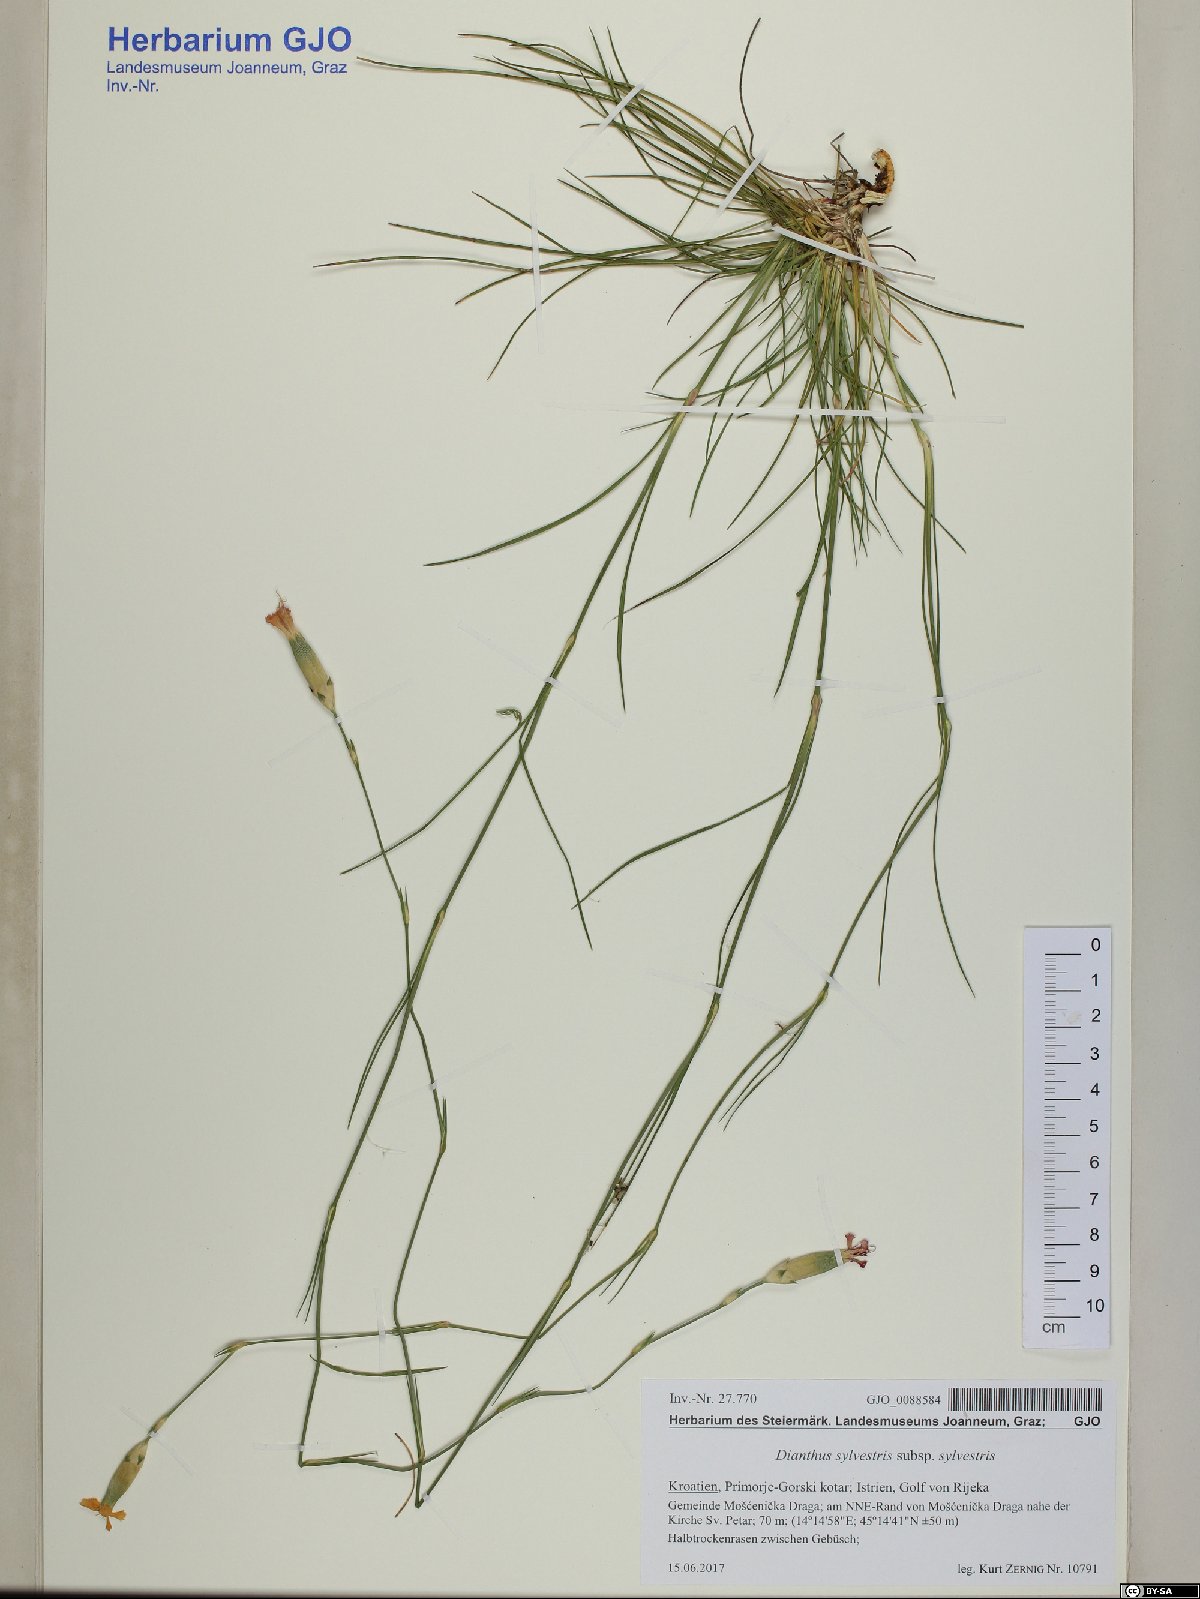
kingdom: Plantae
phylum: Tracheophyta
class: Magnoliopsida
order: Caryophyllales
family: Caryophyllaceae
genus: Dianthus
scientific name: Dianthus sylvestris
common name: Wood pink
